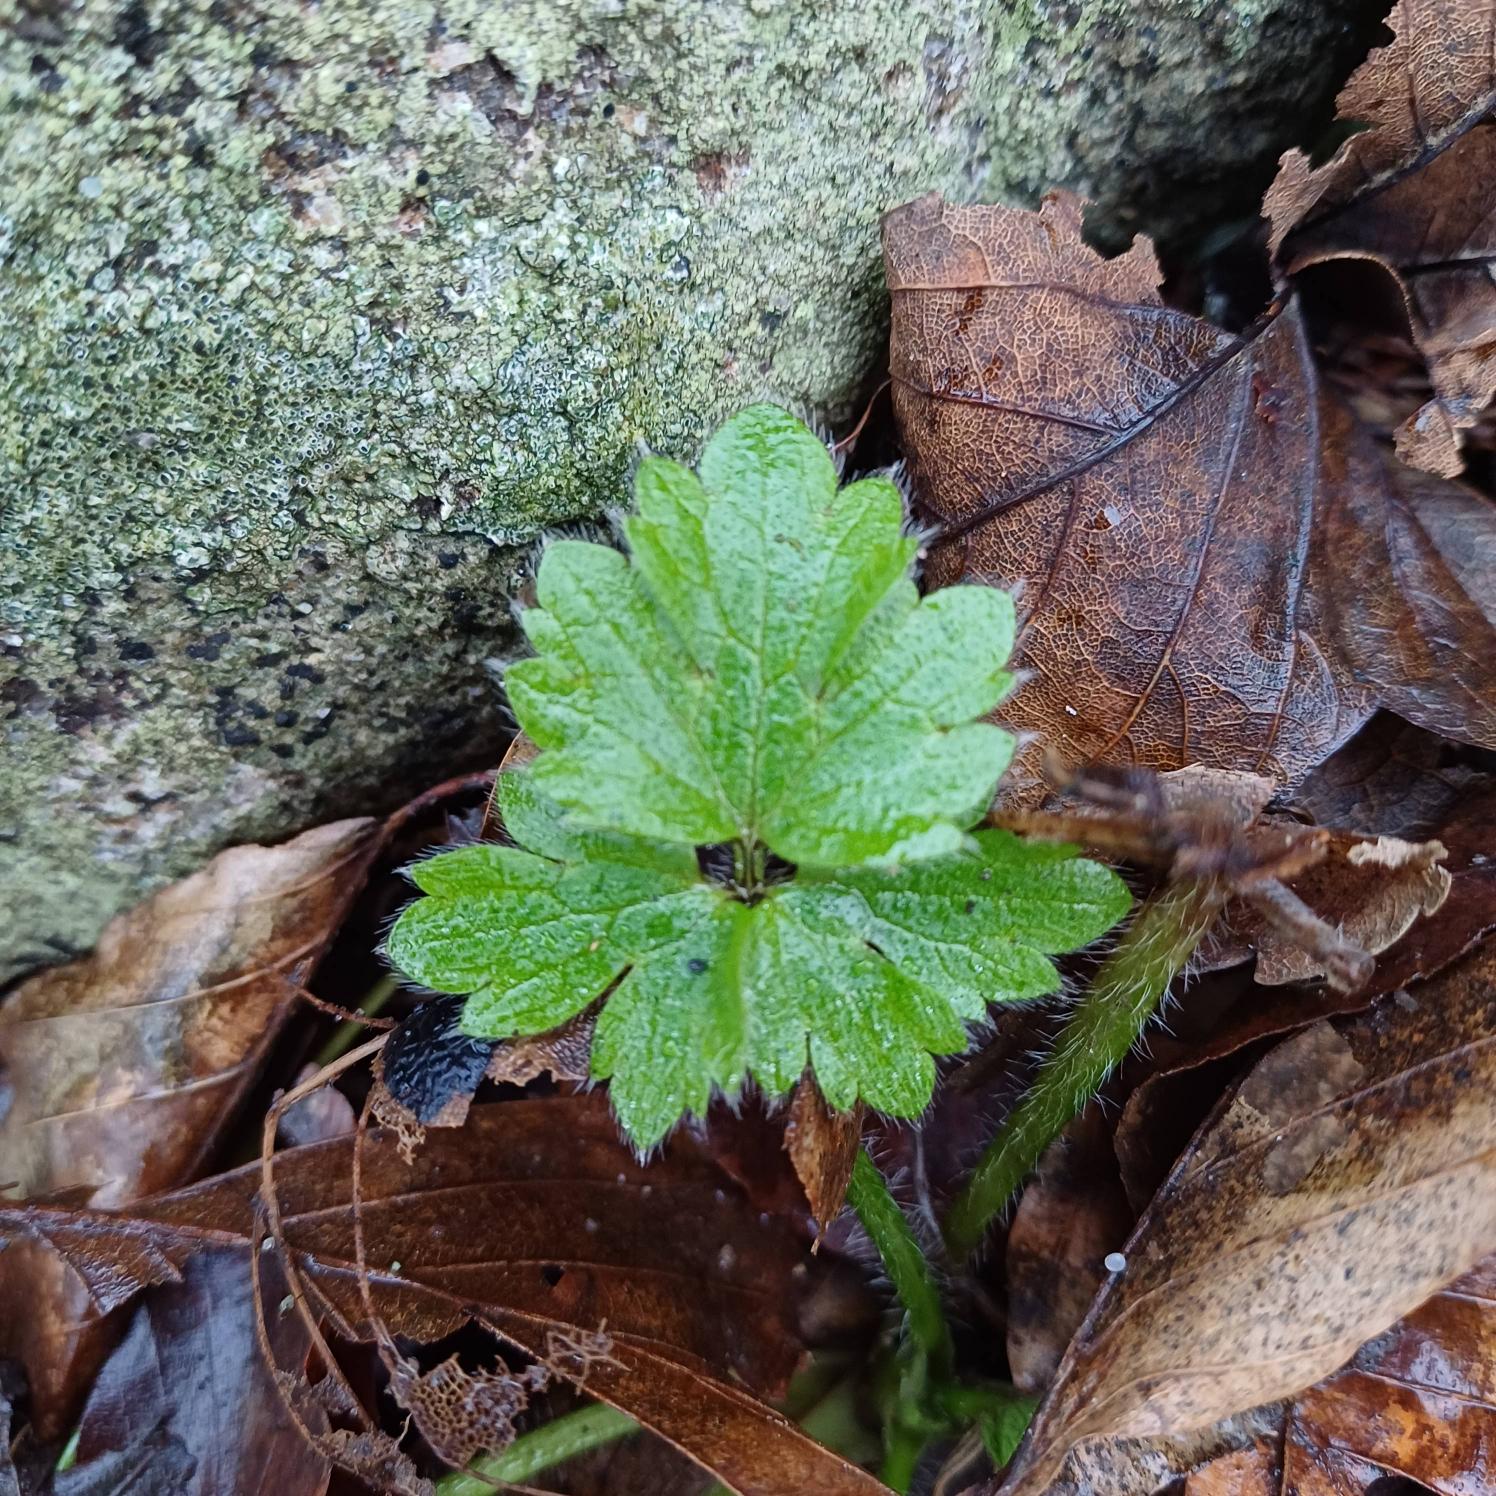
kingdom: Plantae
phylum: Tracheophyta
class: Magnoliopsida
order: Ranunculales
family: Ranunculaceae
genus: Ranunculus
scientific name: Ranunculus repens
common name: Lav ranunkel
